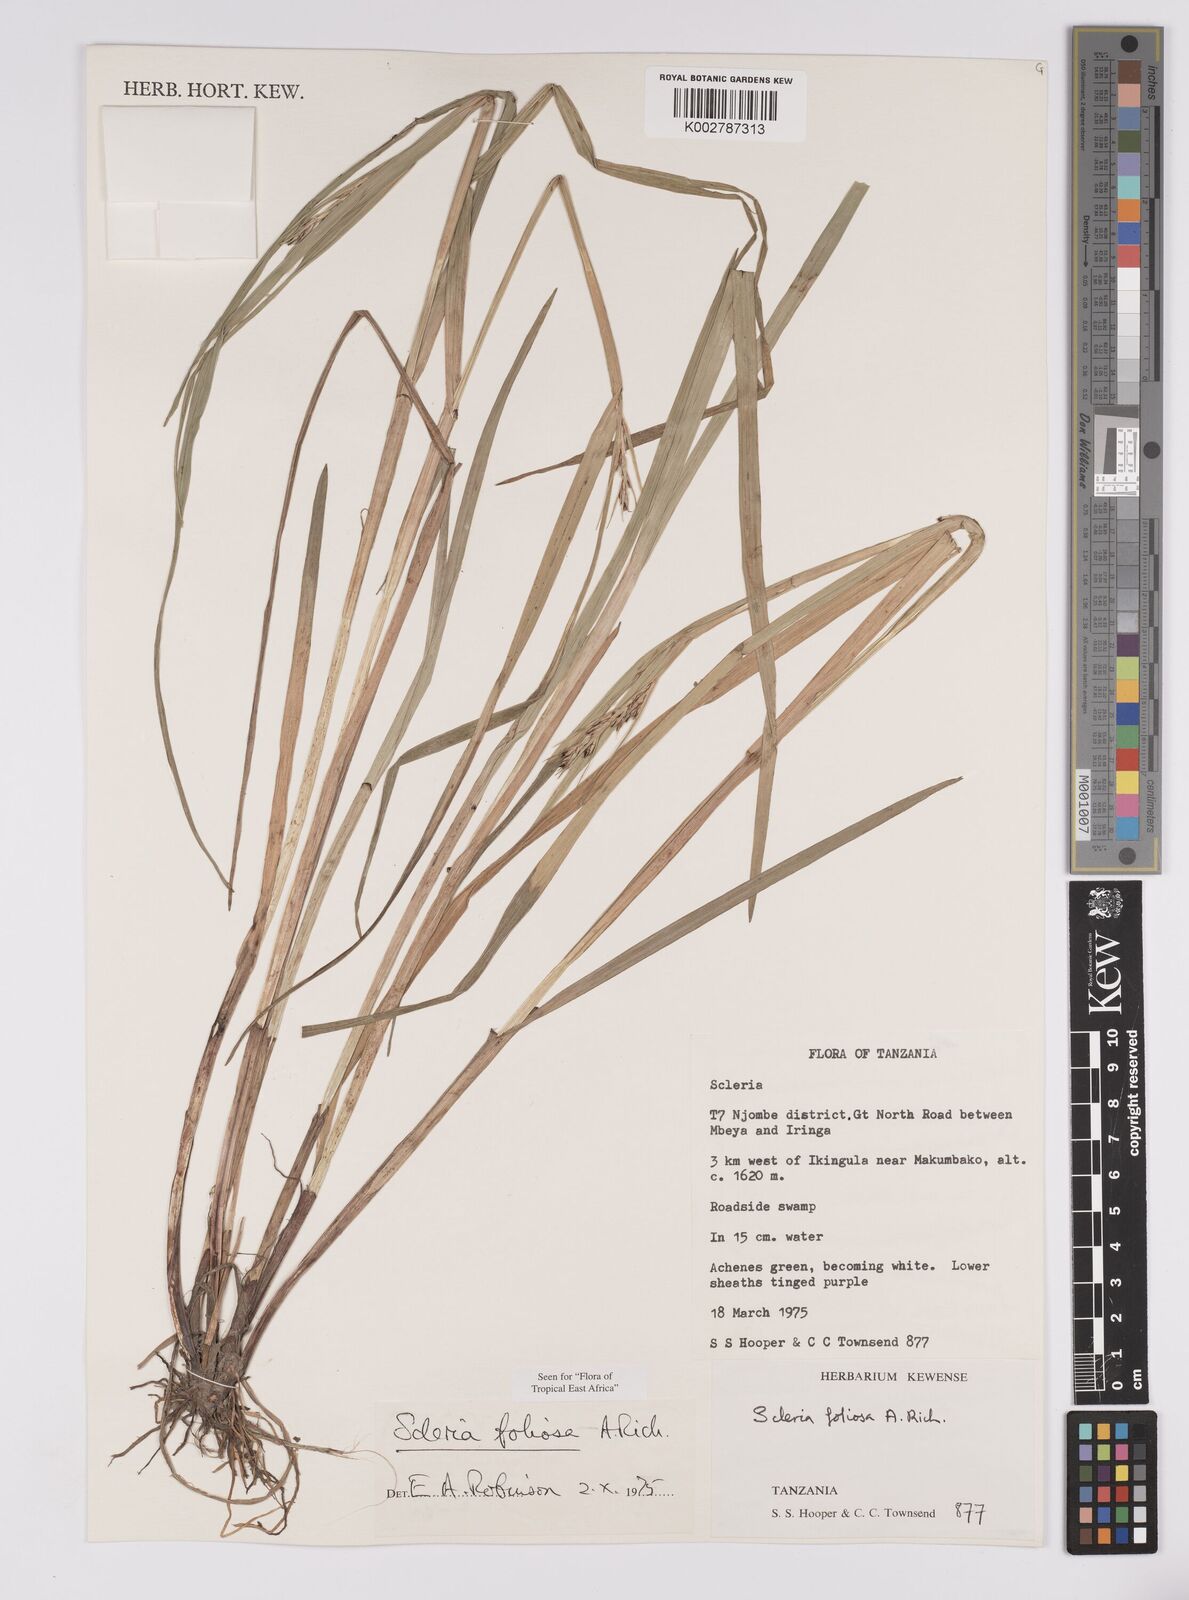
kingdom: Plantae
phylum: Tracheophyta
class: Liliopsida
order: Poales
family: Cyperaceae
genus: Scleria
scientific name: Scleria foliosa
